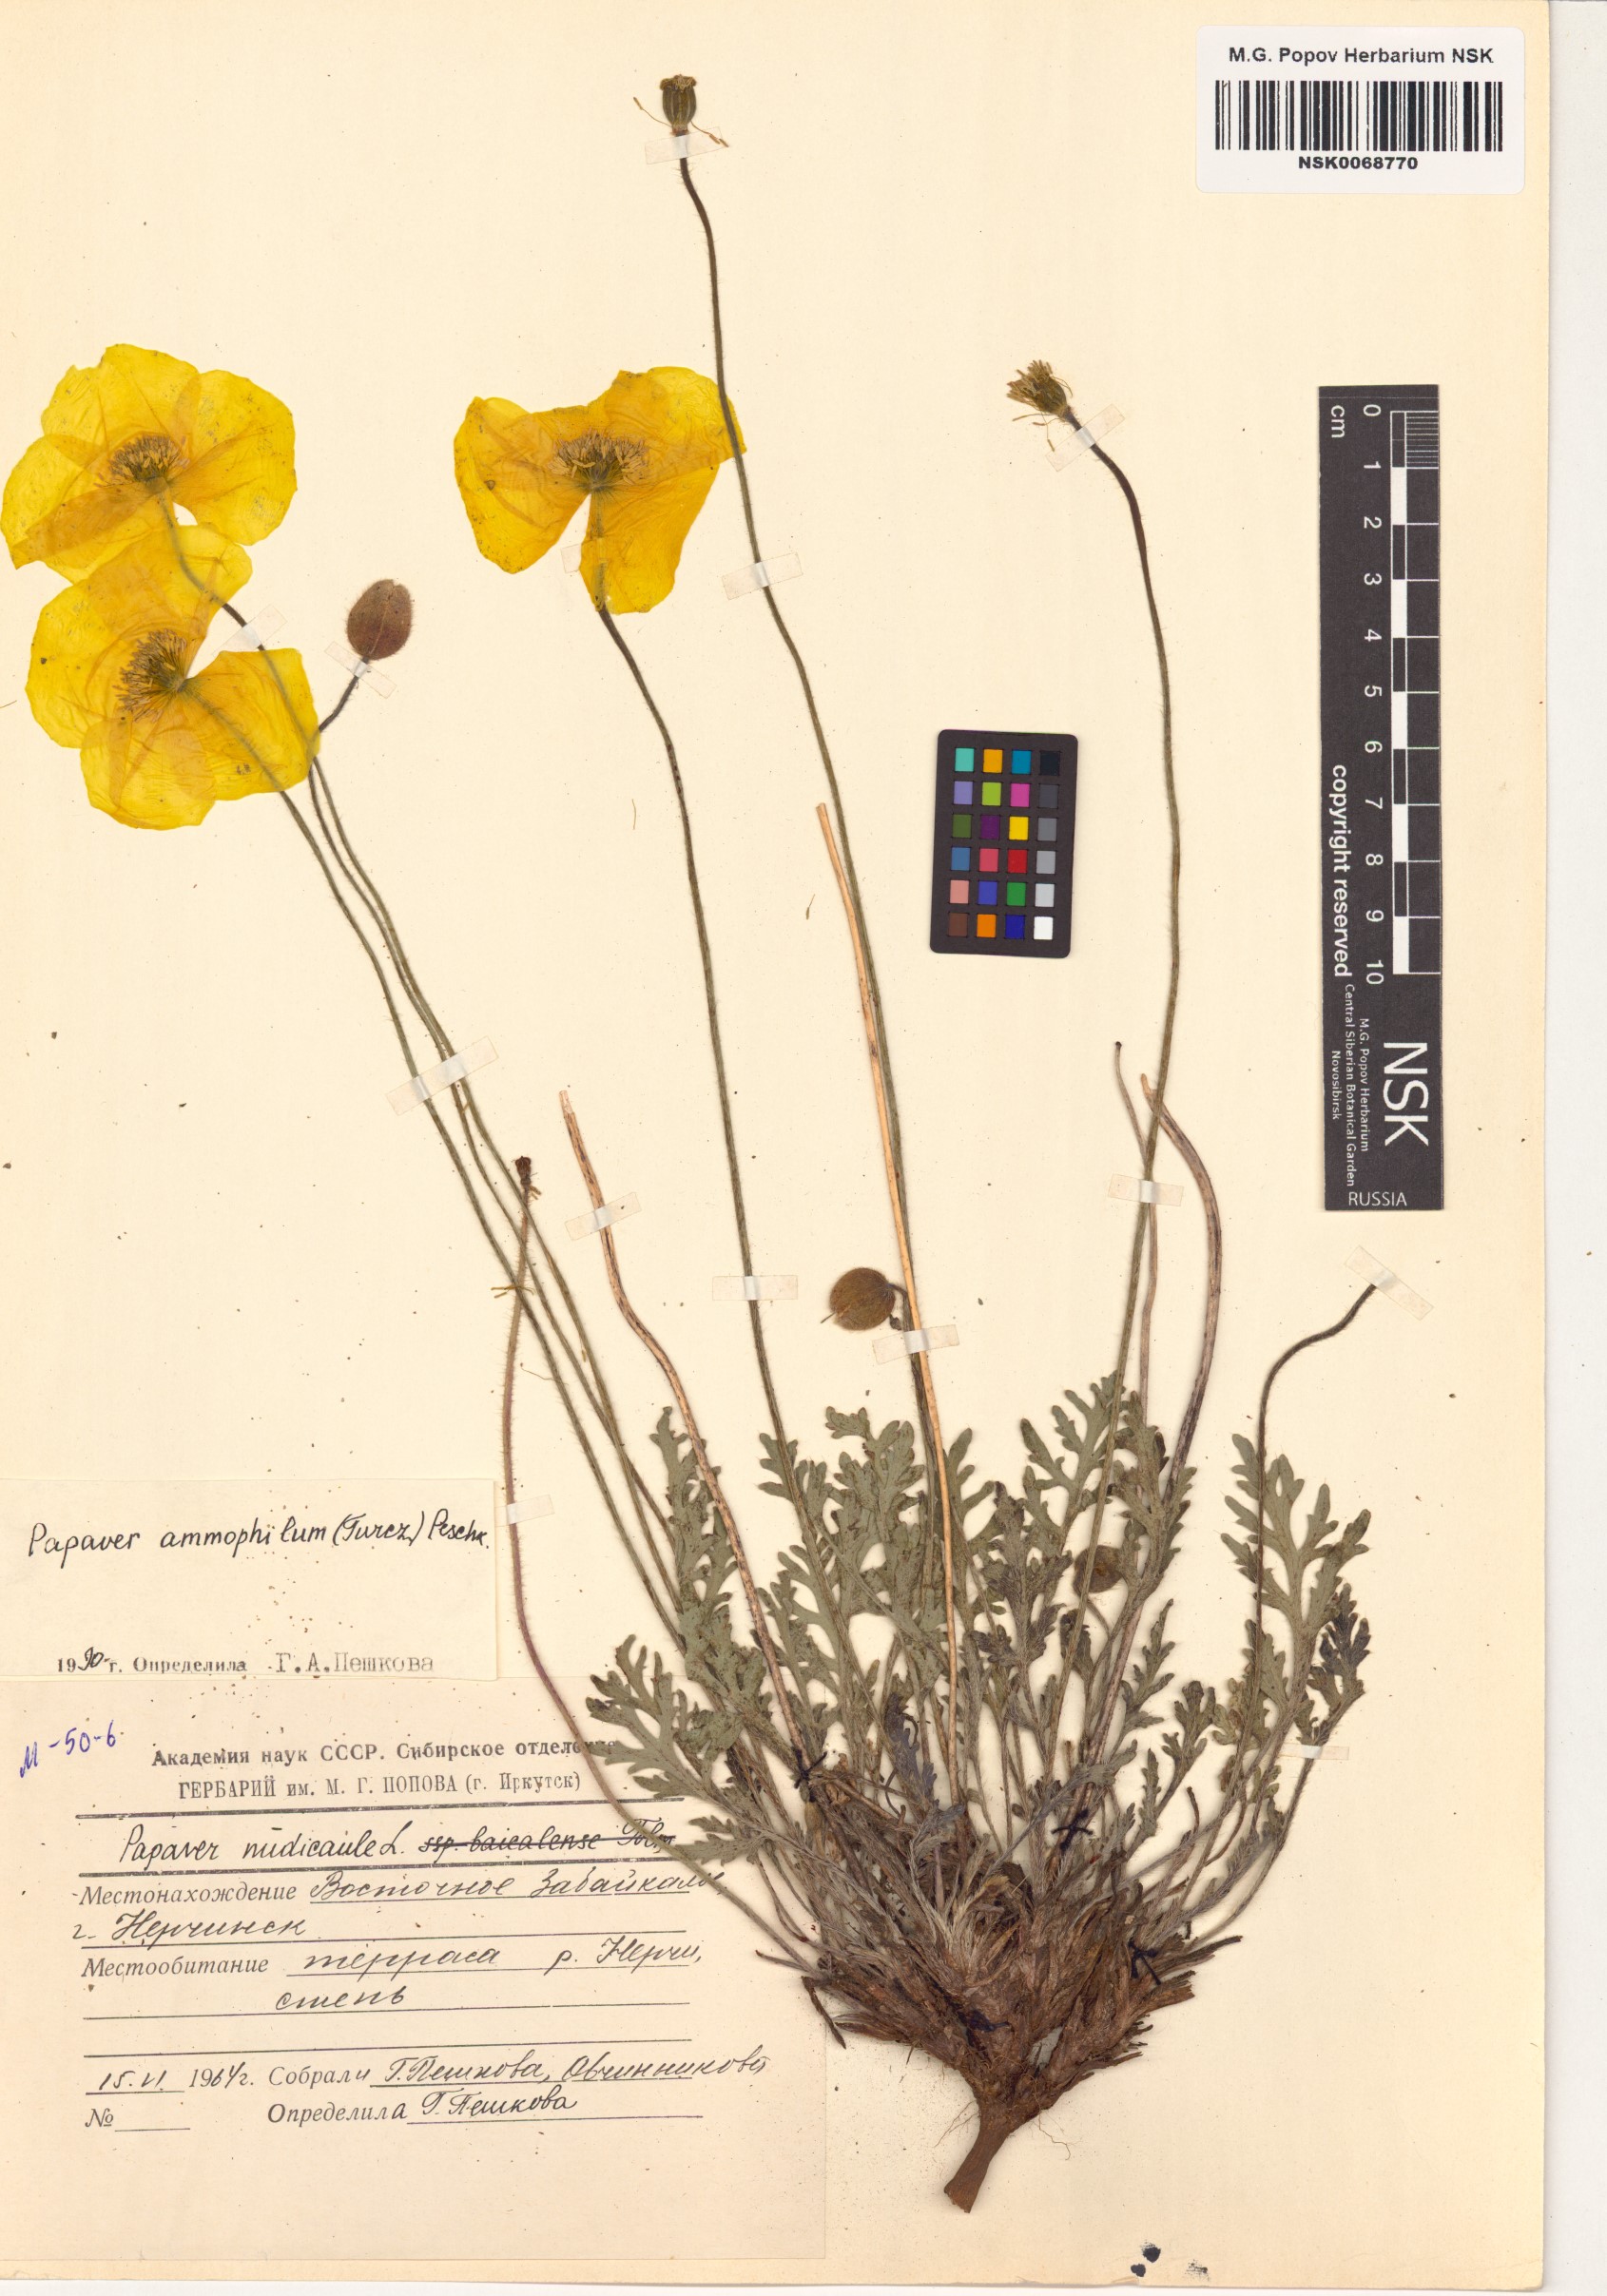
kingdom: Plantae
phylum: Tracheophyta
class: Magnoliopsida
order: Ranunculales
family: Papaveraceae
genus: Papaver
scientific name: Papaver nudicaule
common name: Arctic poppy
